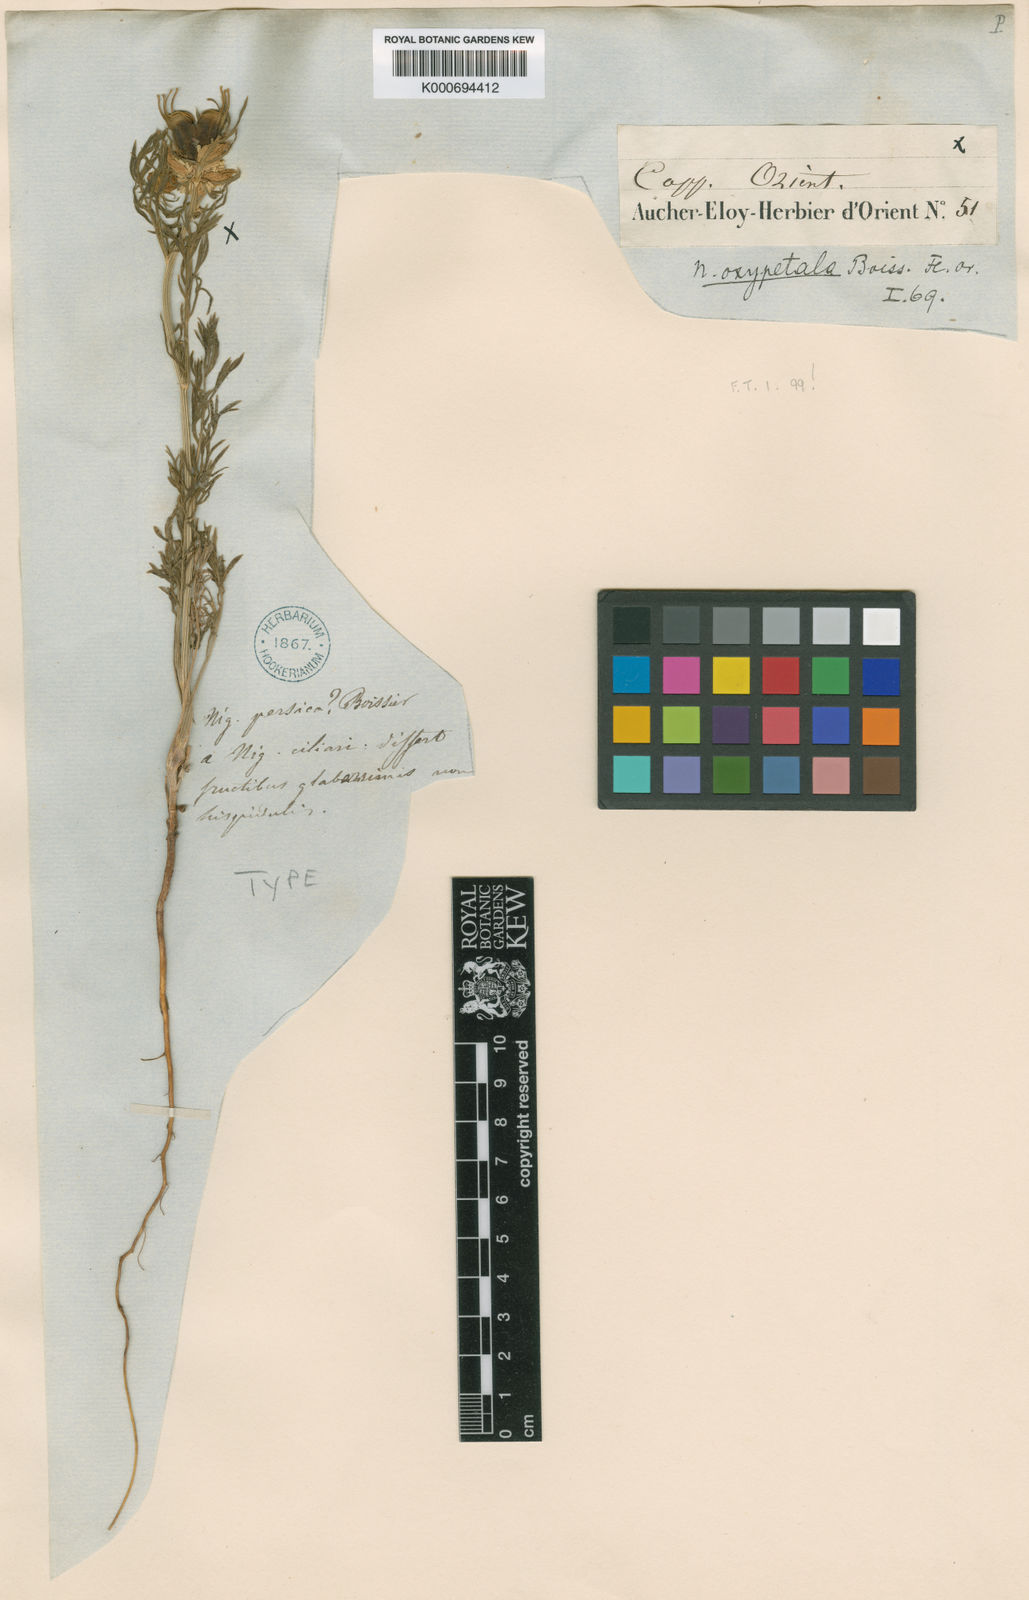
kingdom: Plantae
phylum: Tracheophyta
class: Magnoliopsida
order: Ranunculales
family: Ranunculaceae
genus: Nigella
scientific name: Nigella
